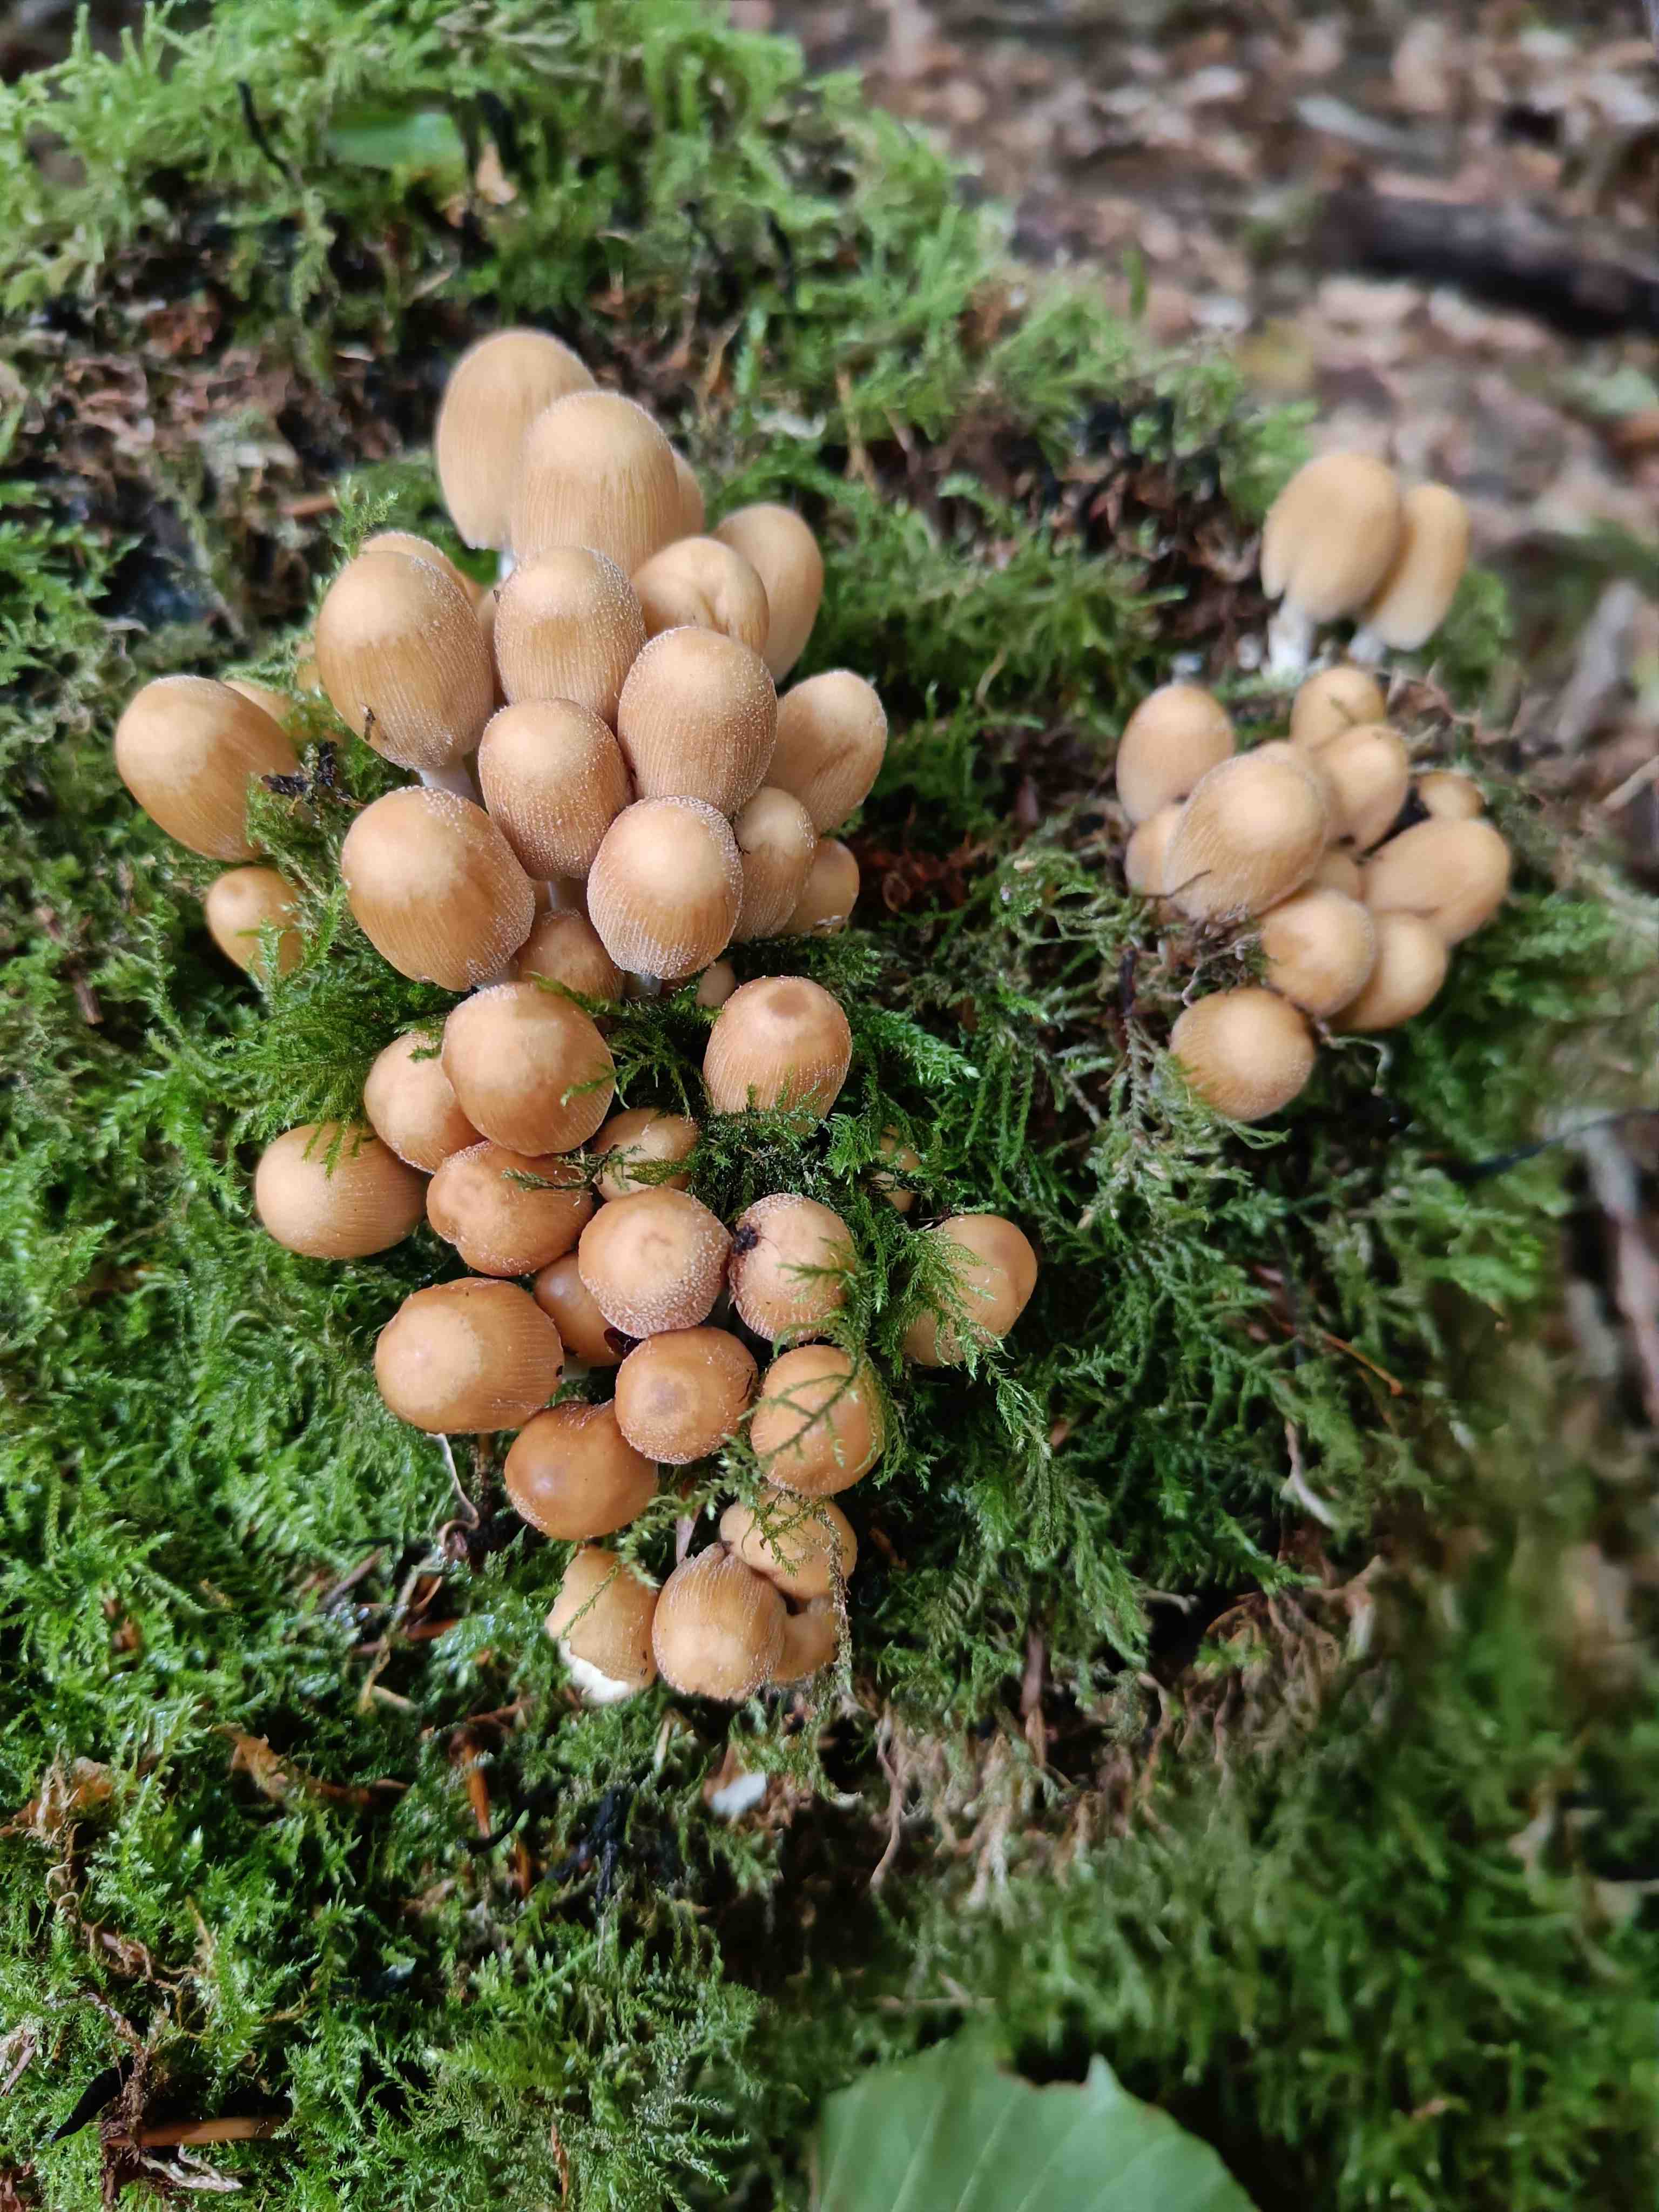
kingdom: Fungi
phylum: Basidiomycota
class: Agaricomycetes
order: Agaricales
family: Psathyrellaceae
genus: Coprinellus
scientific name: Coprinellus micaceus
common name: glimmer-blækhat
